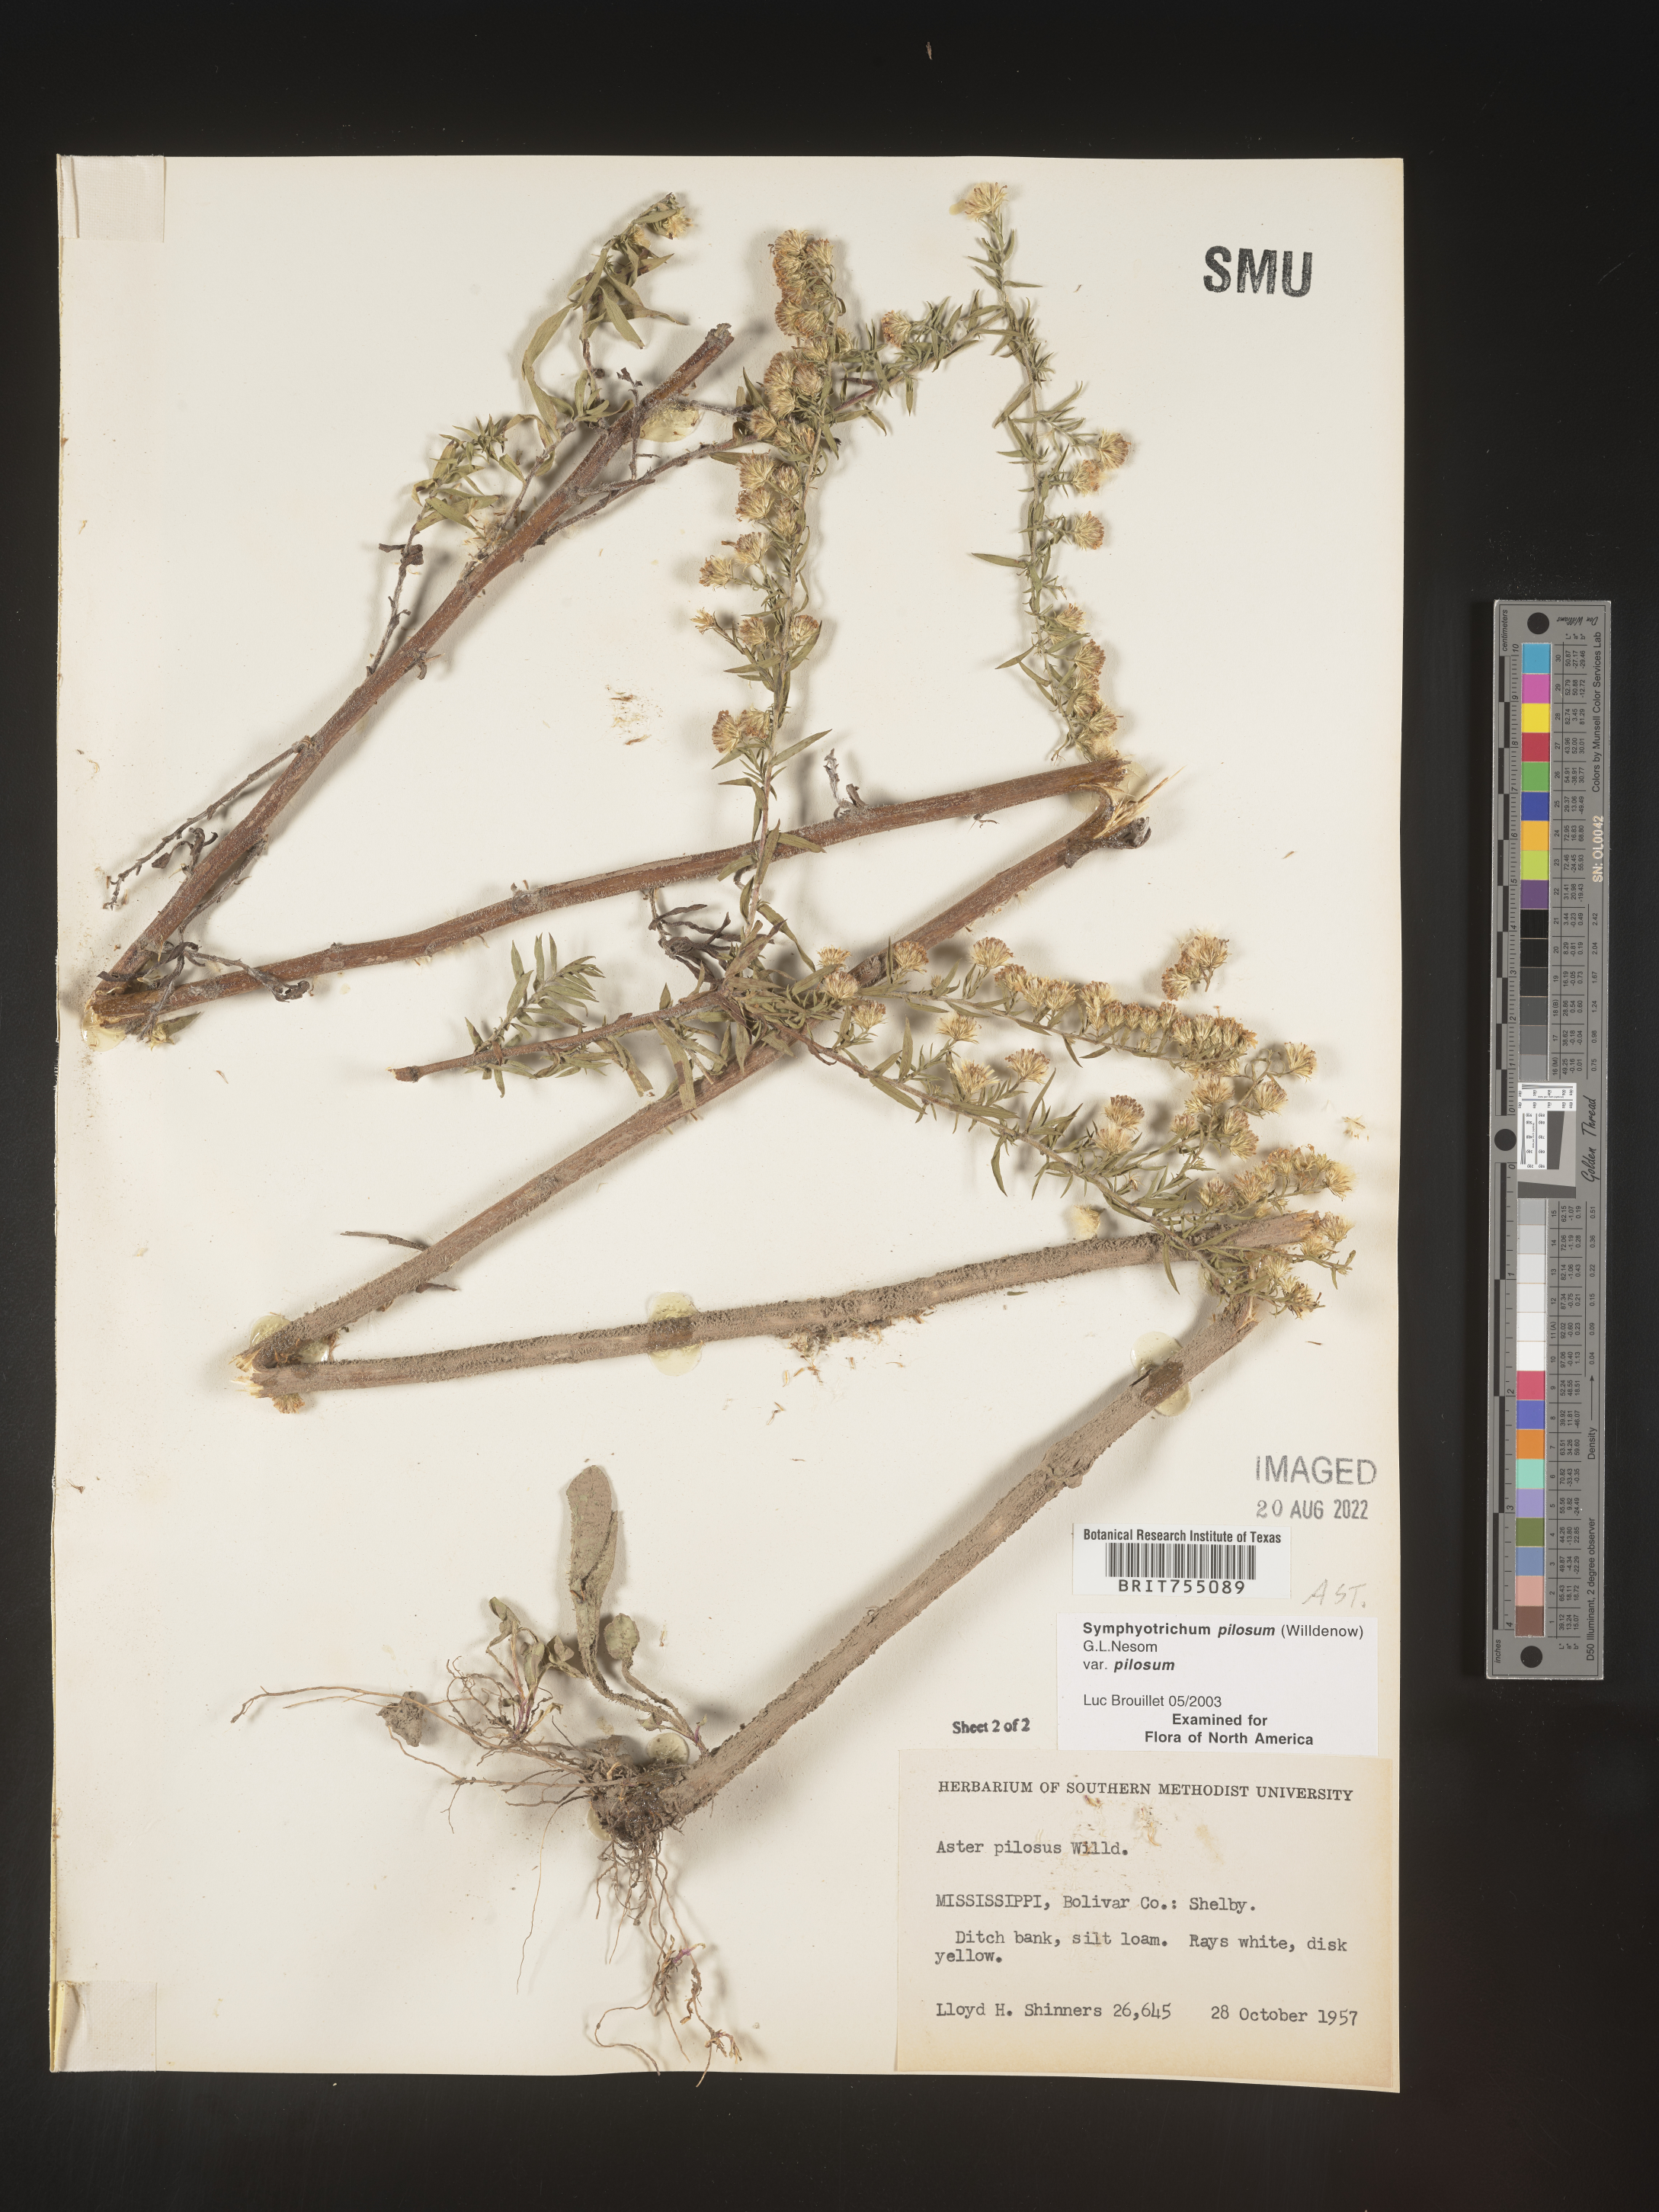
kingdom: Plantae
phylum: Tracheophyta
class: Magnoliopsida
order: Asterales
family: Asteraceae
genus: Symphyotrichum
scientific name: Symphyotrichum pilosum
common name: Awl aster
